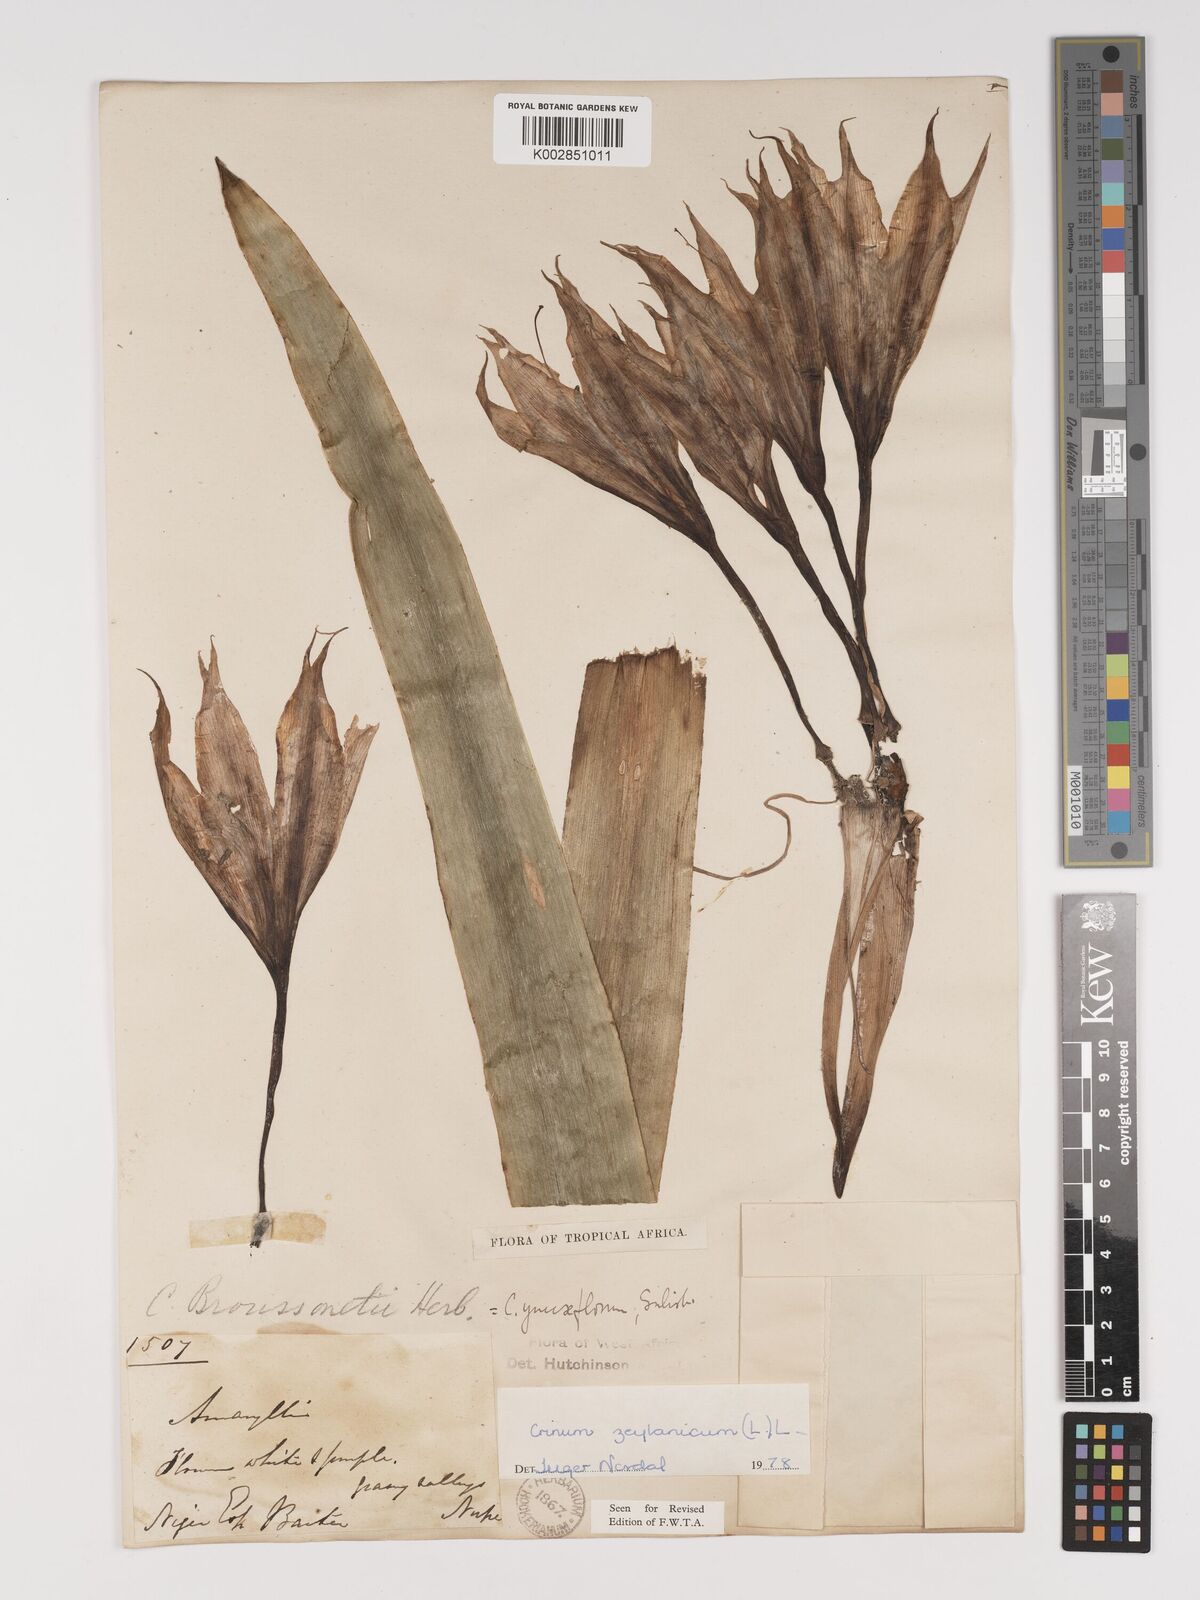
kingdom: Plantae
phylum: Tracheophyta
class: Liliopsida
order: Asparagales
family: Amaryllidaceae
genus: Crinum
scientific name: Crinum zeylanicum
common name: Ceylon swamplily
